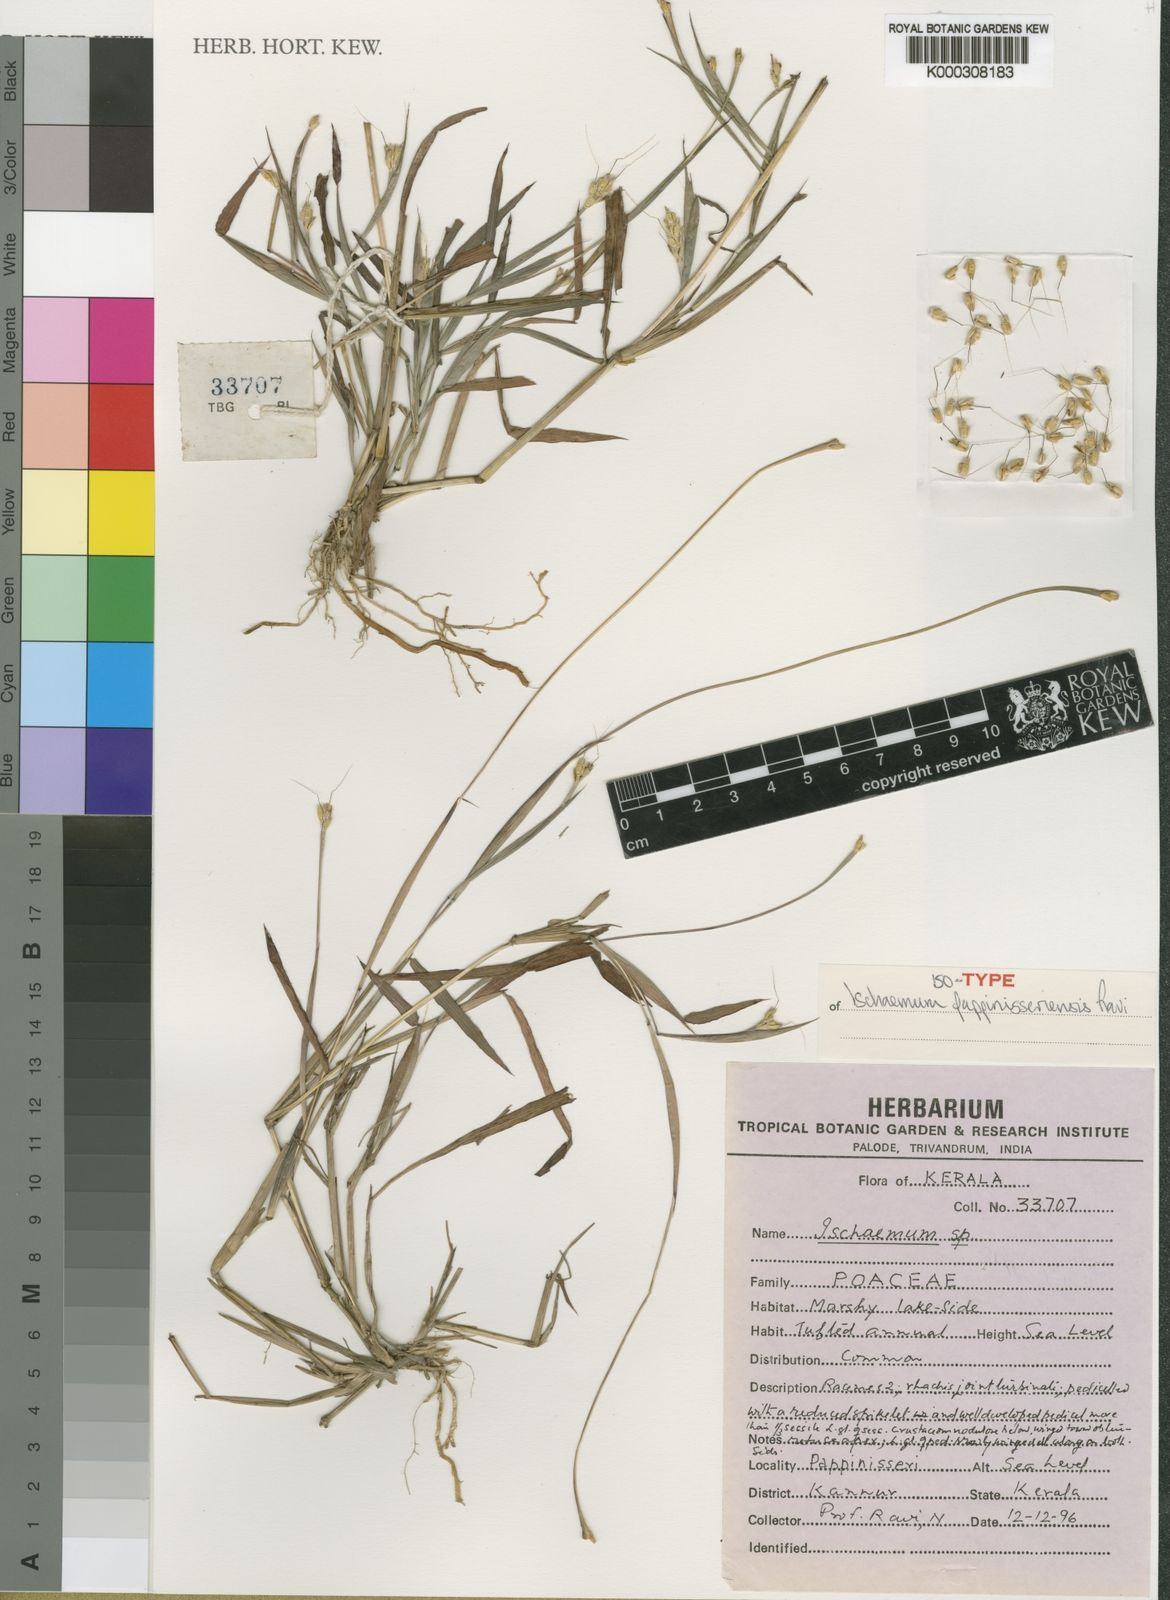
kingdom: Plantae
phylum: Tracheophyta
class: Liliopsida
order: Poales
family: Poaceae
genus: Ischaemum
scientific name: Ischaemum pappinisseriense
